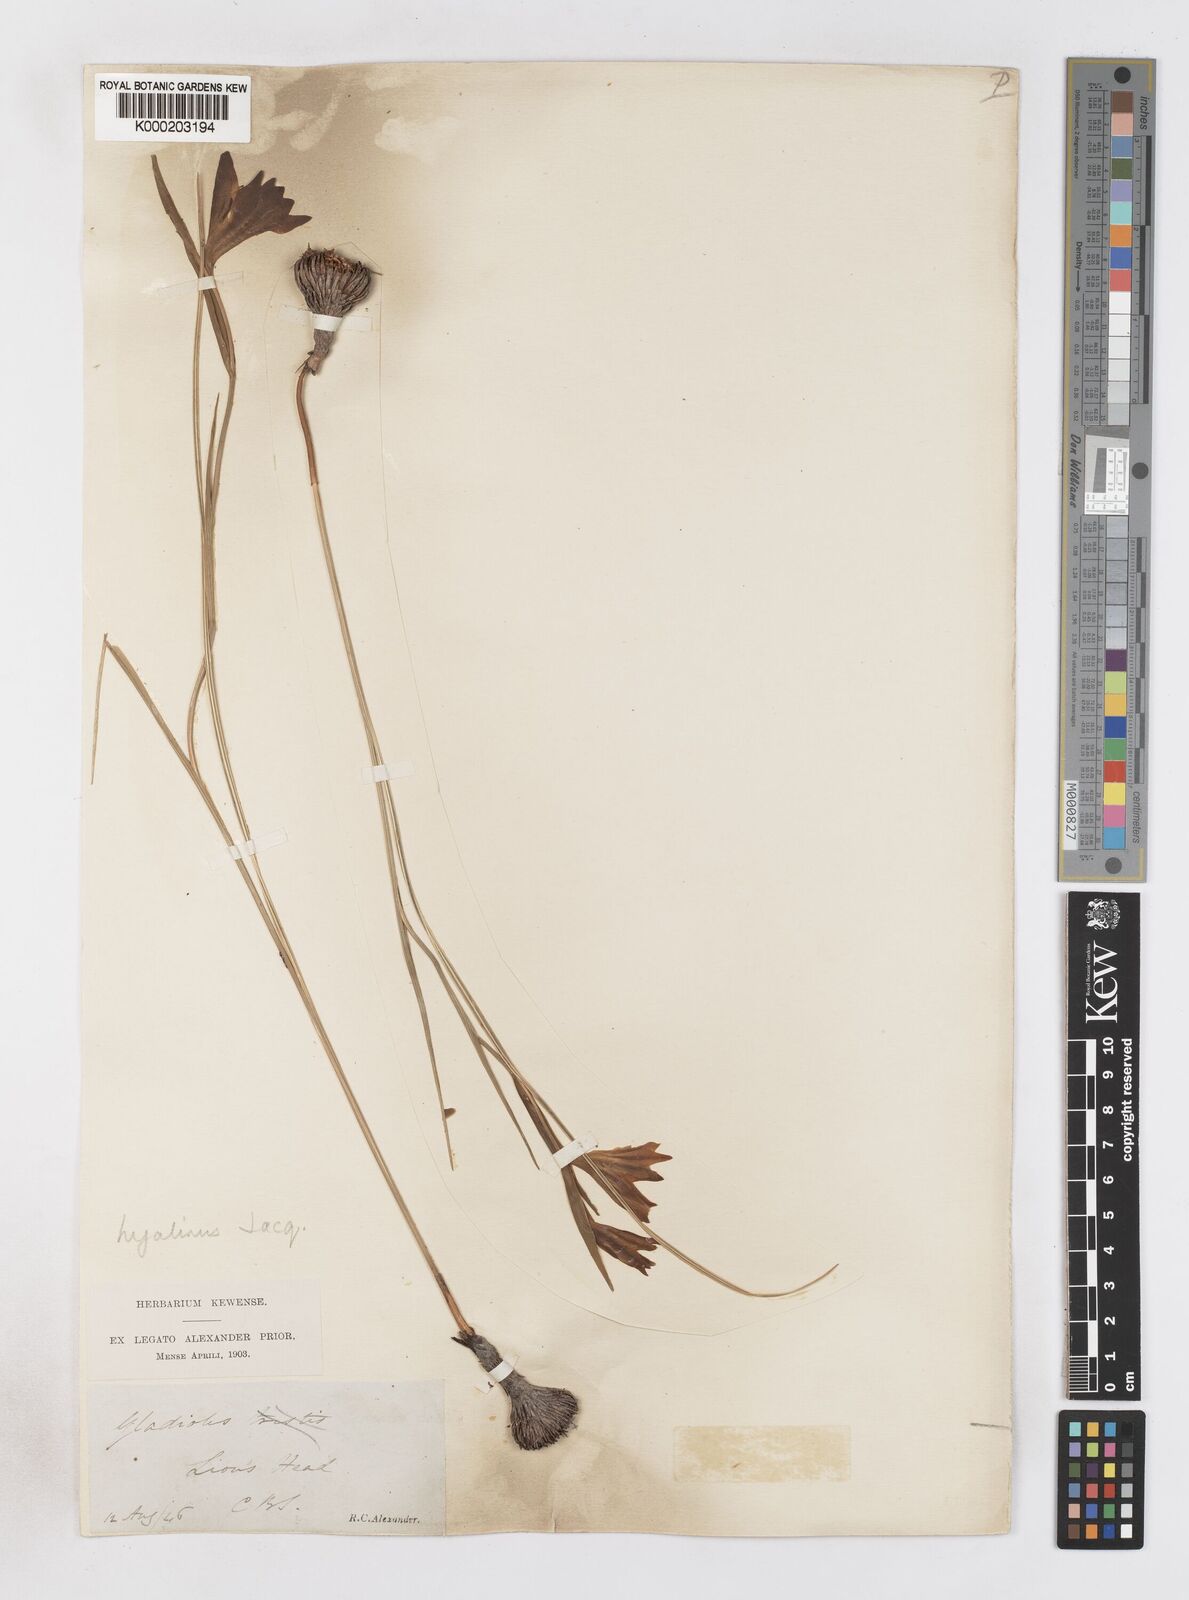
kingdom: Plantae
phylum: Tracheophyta
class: Liliopsida
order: Asparagales
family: Iridaceae
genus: Gladiolus
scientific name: Gladiolus hyalinus
